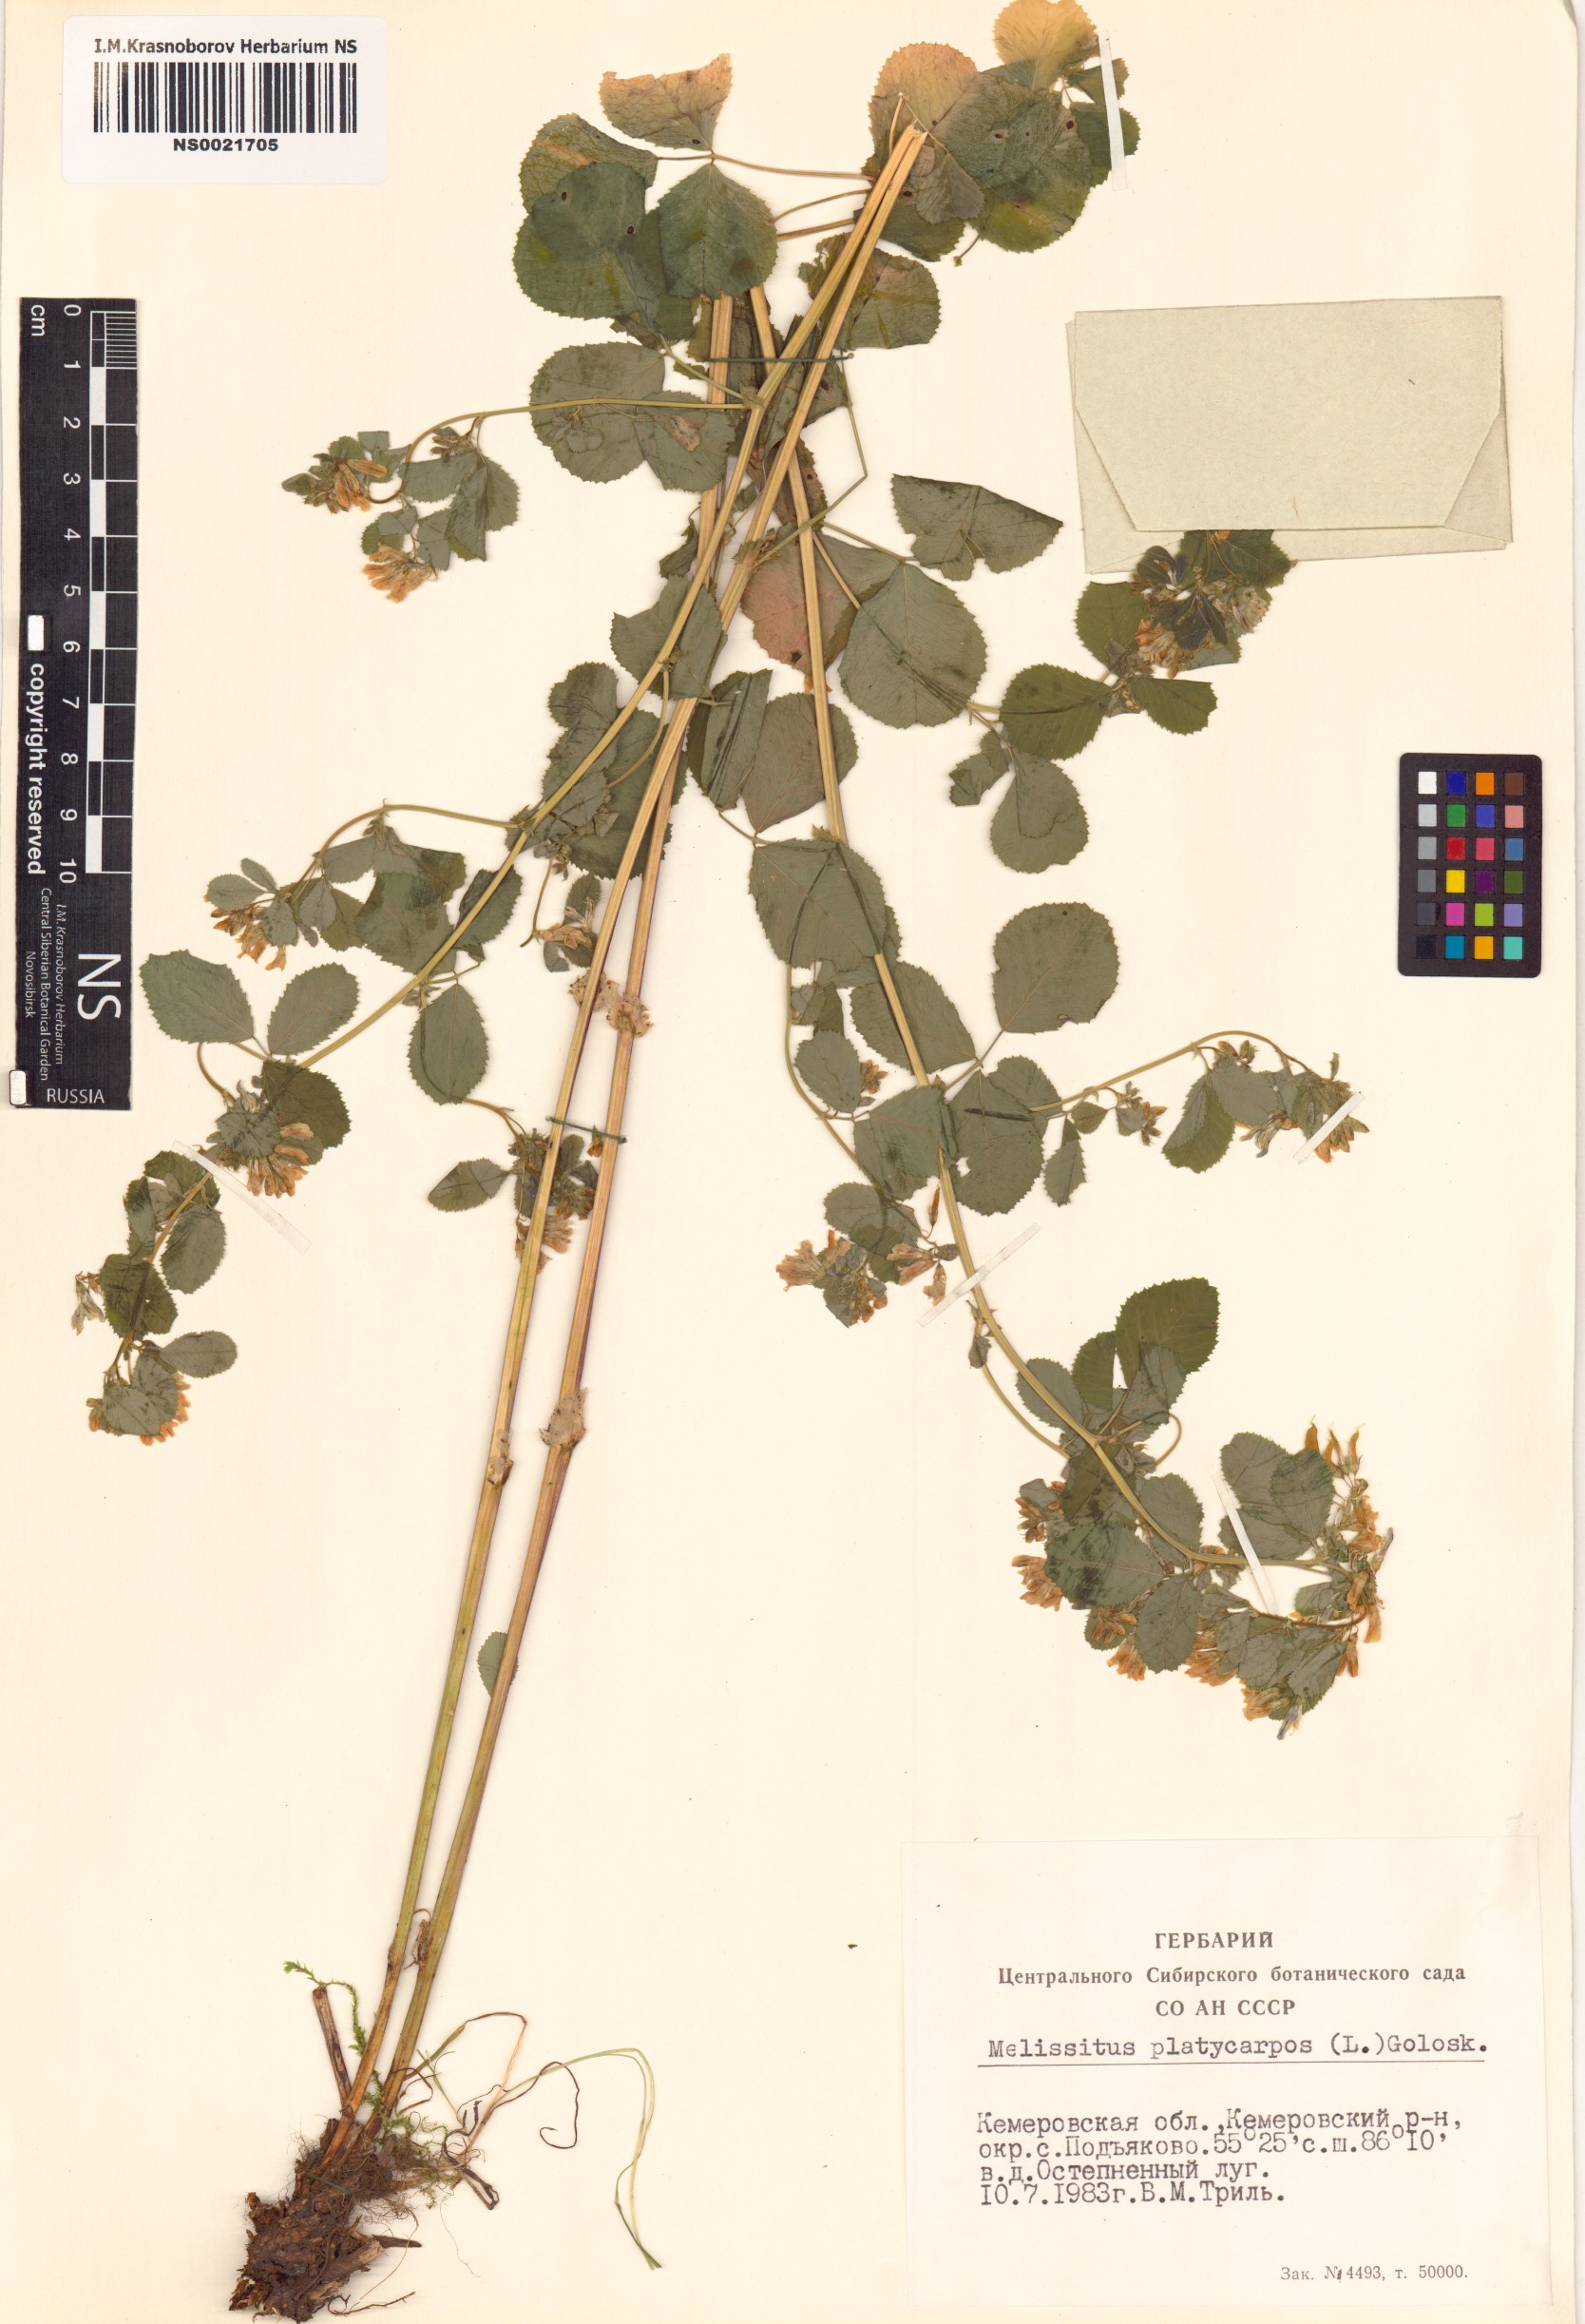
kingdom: Plantae
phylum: Tracheophyta
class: Magnoliopsida
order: Fabales
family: Fabaceae
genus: Medicago
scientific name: Medicago platycarpos
